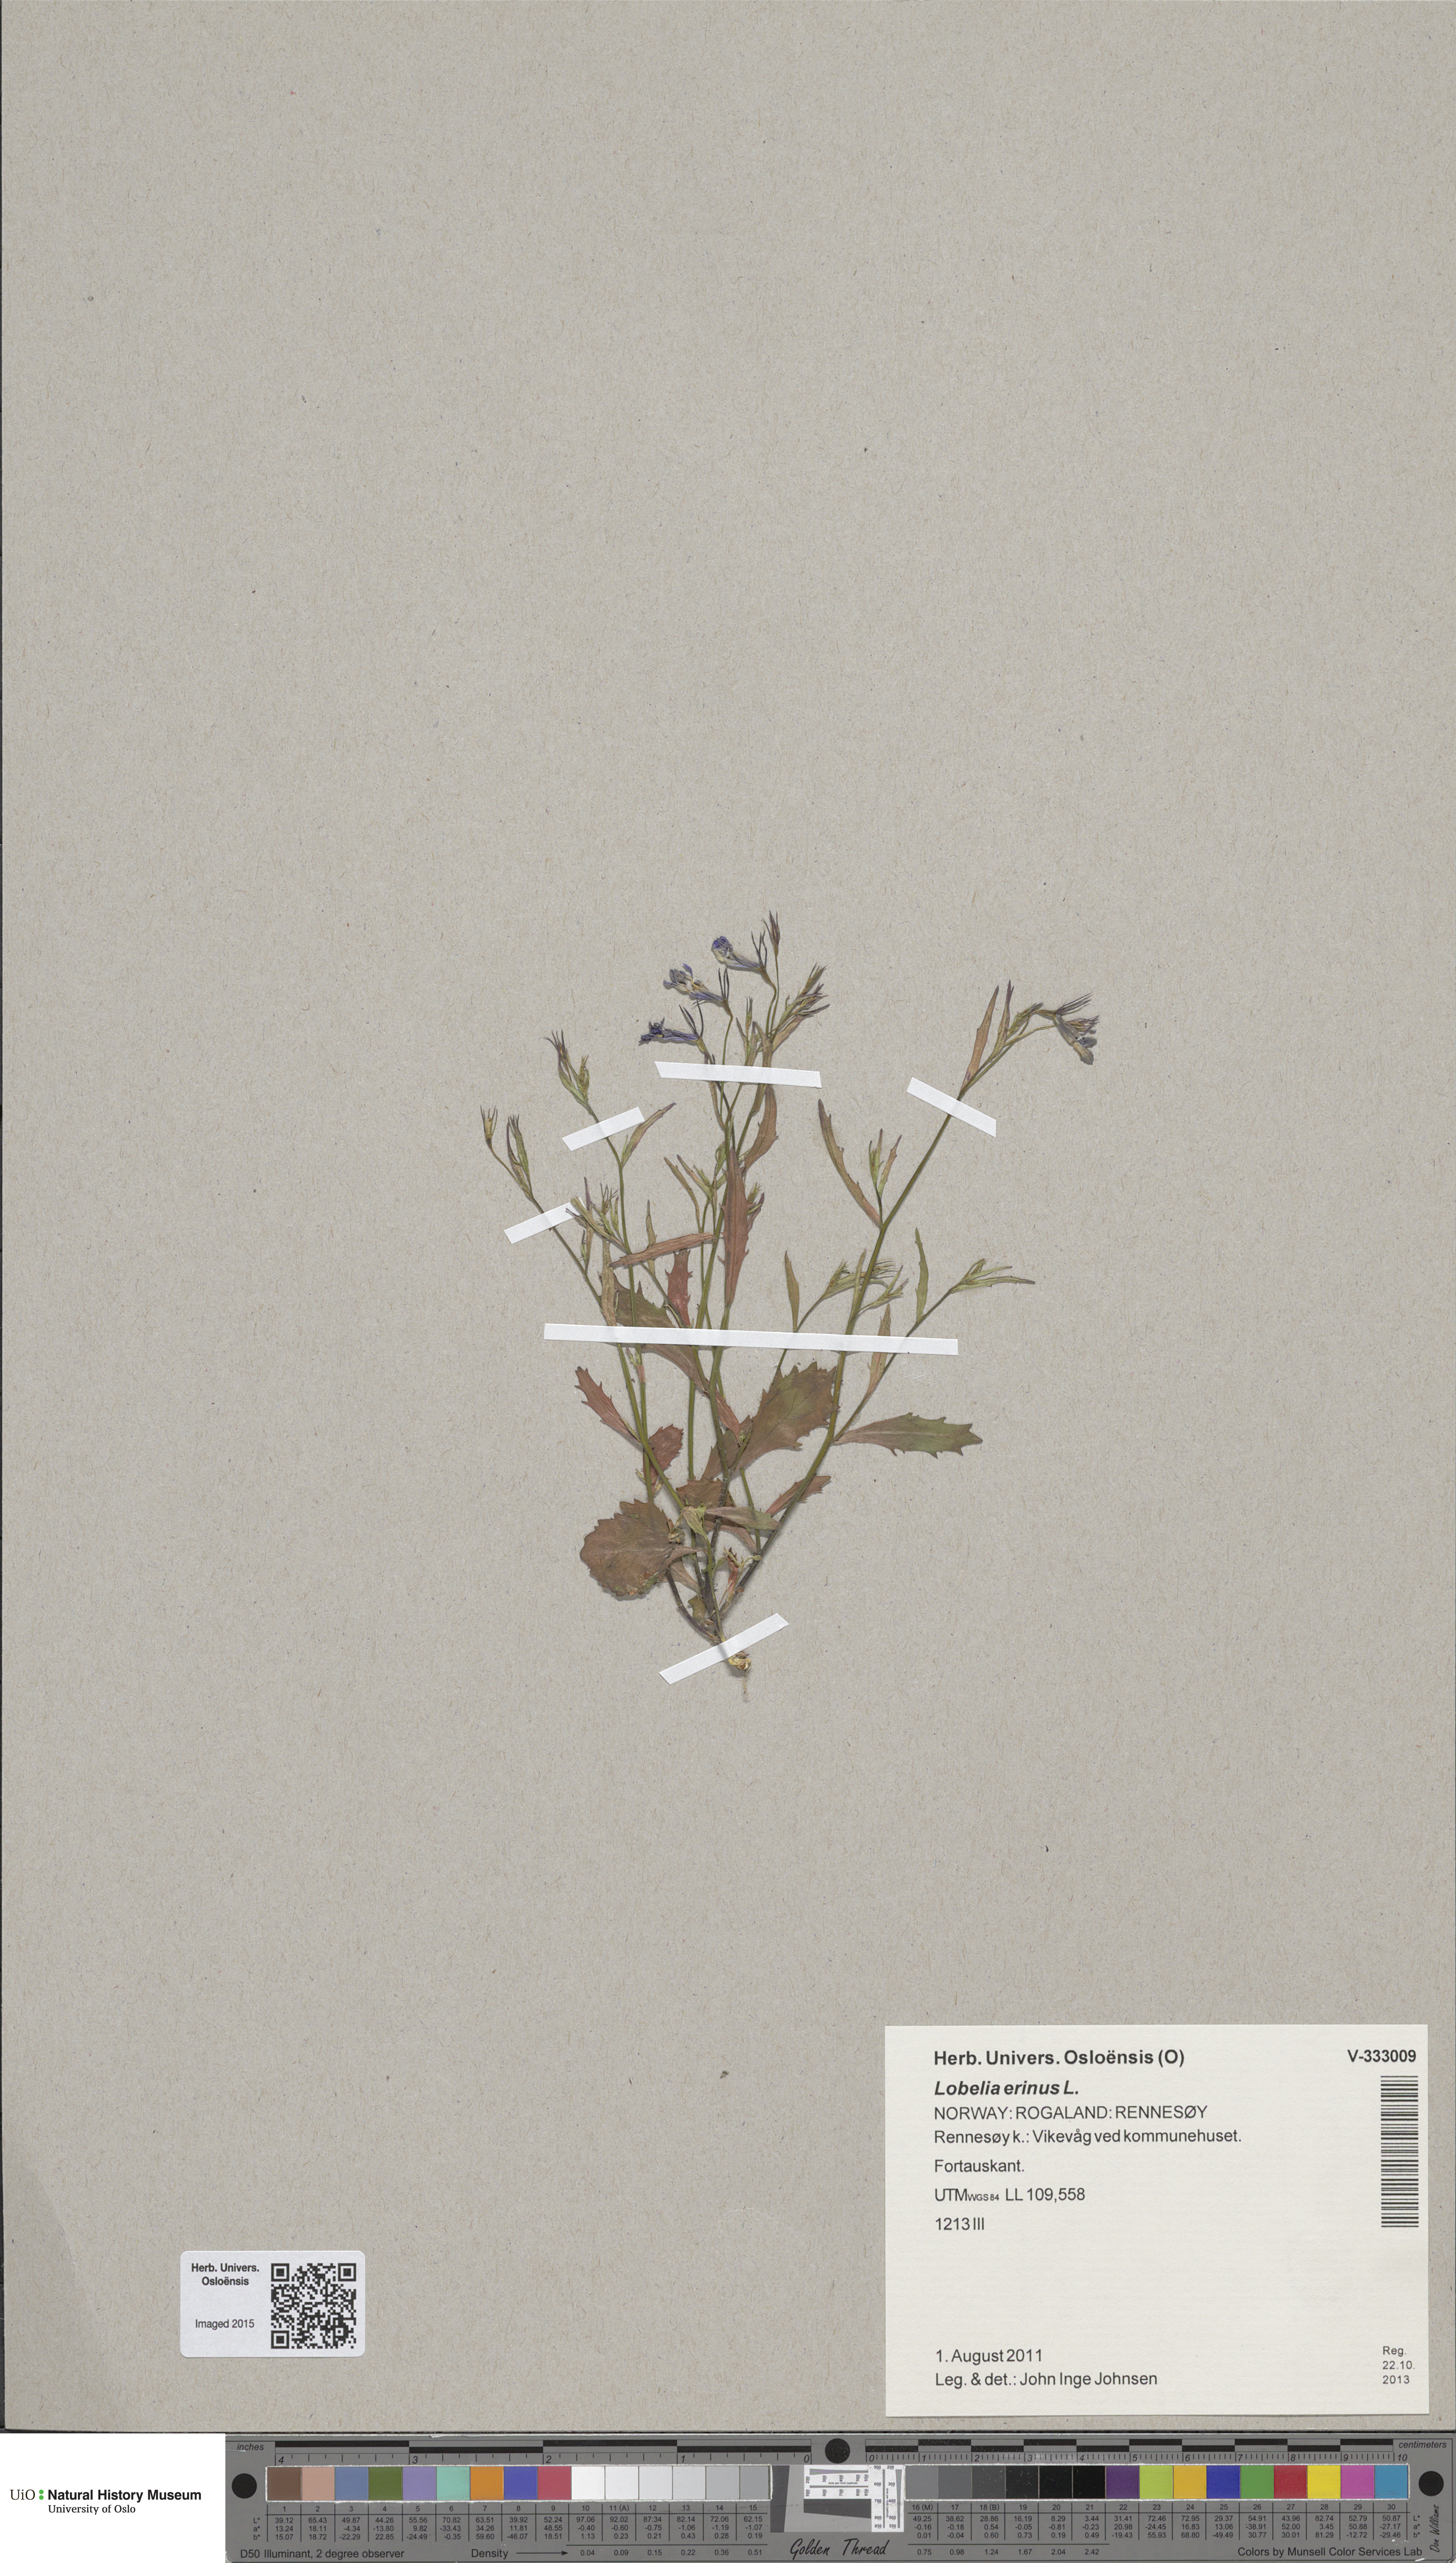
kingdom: Plantae
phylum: Tracheophyta
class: Magnoliopsida
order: Asterales
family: Campanulaceae
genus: Lobelia
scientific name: Lobelia erinus
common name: Edging lobelia
